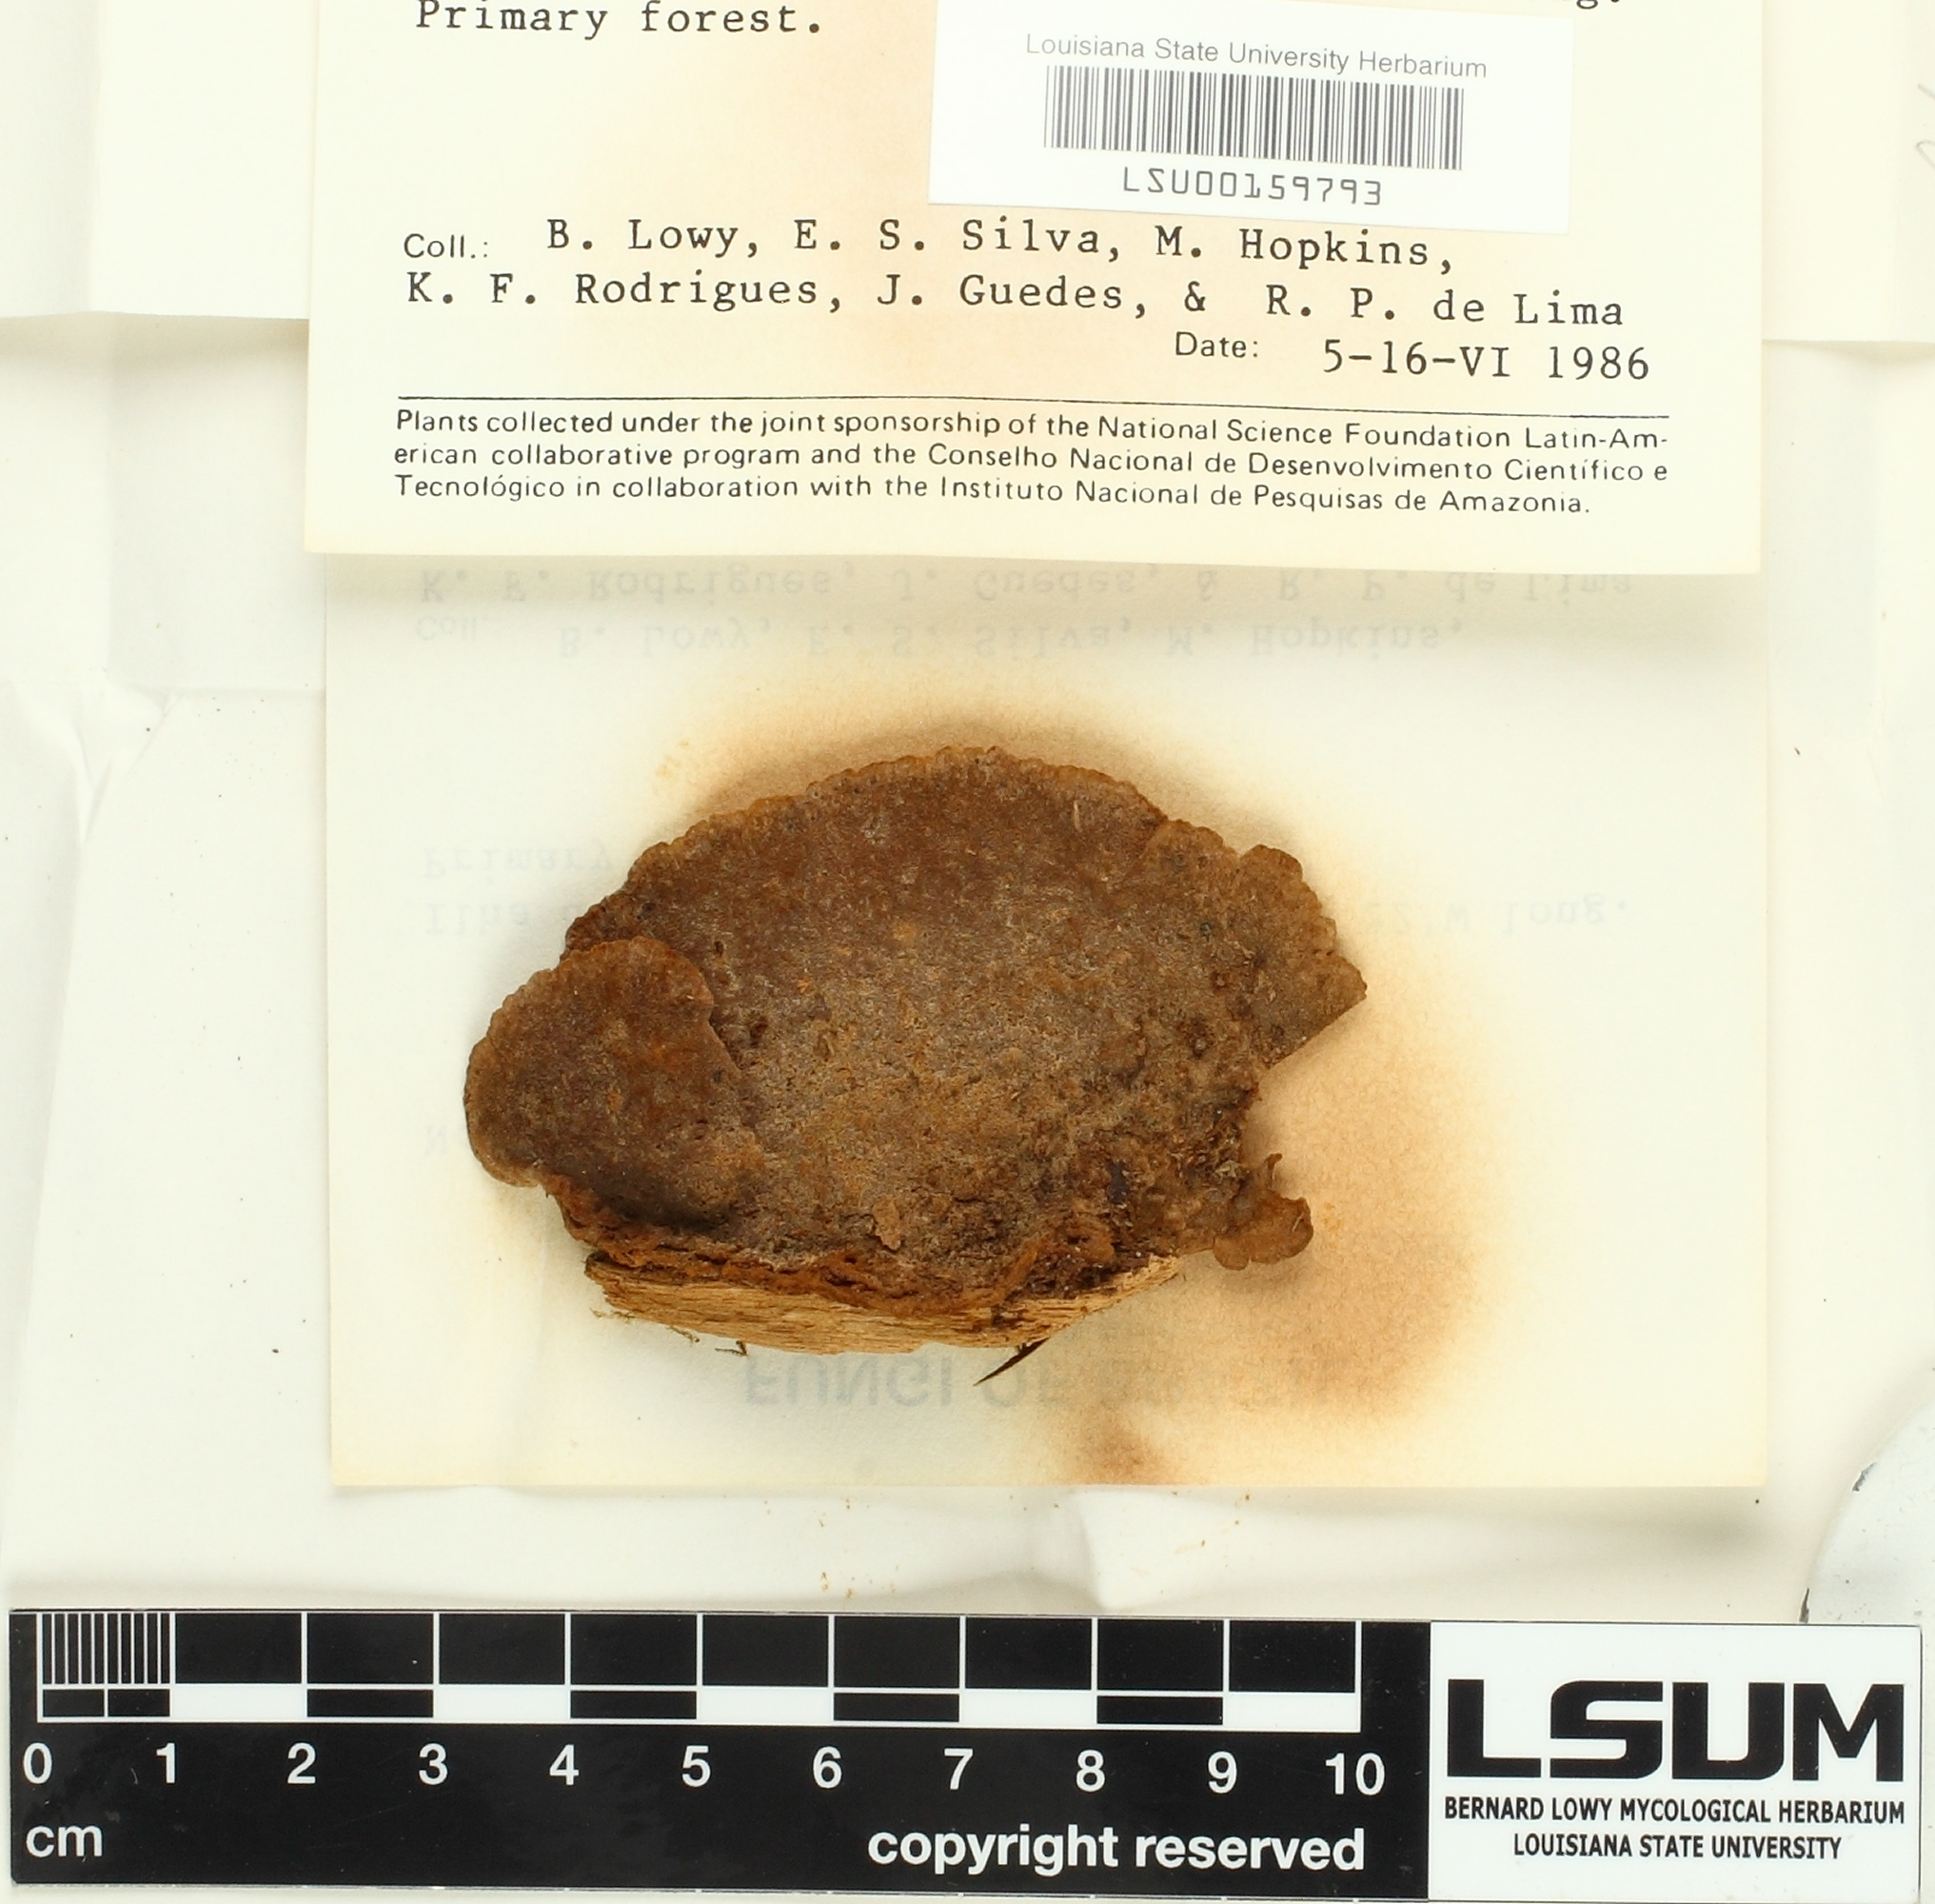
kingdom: Fungi
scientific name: Fungi
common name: Fungi
